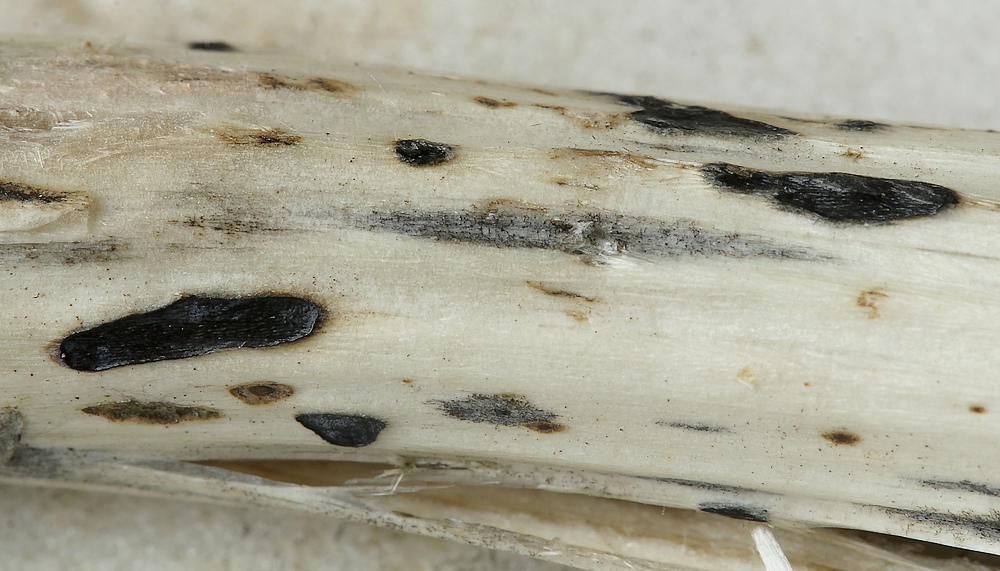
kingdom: Fungi
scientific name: Fungi
